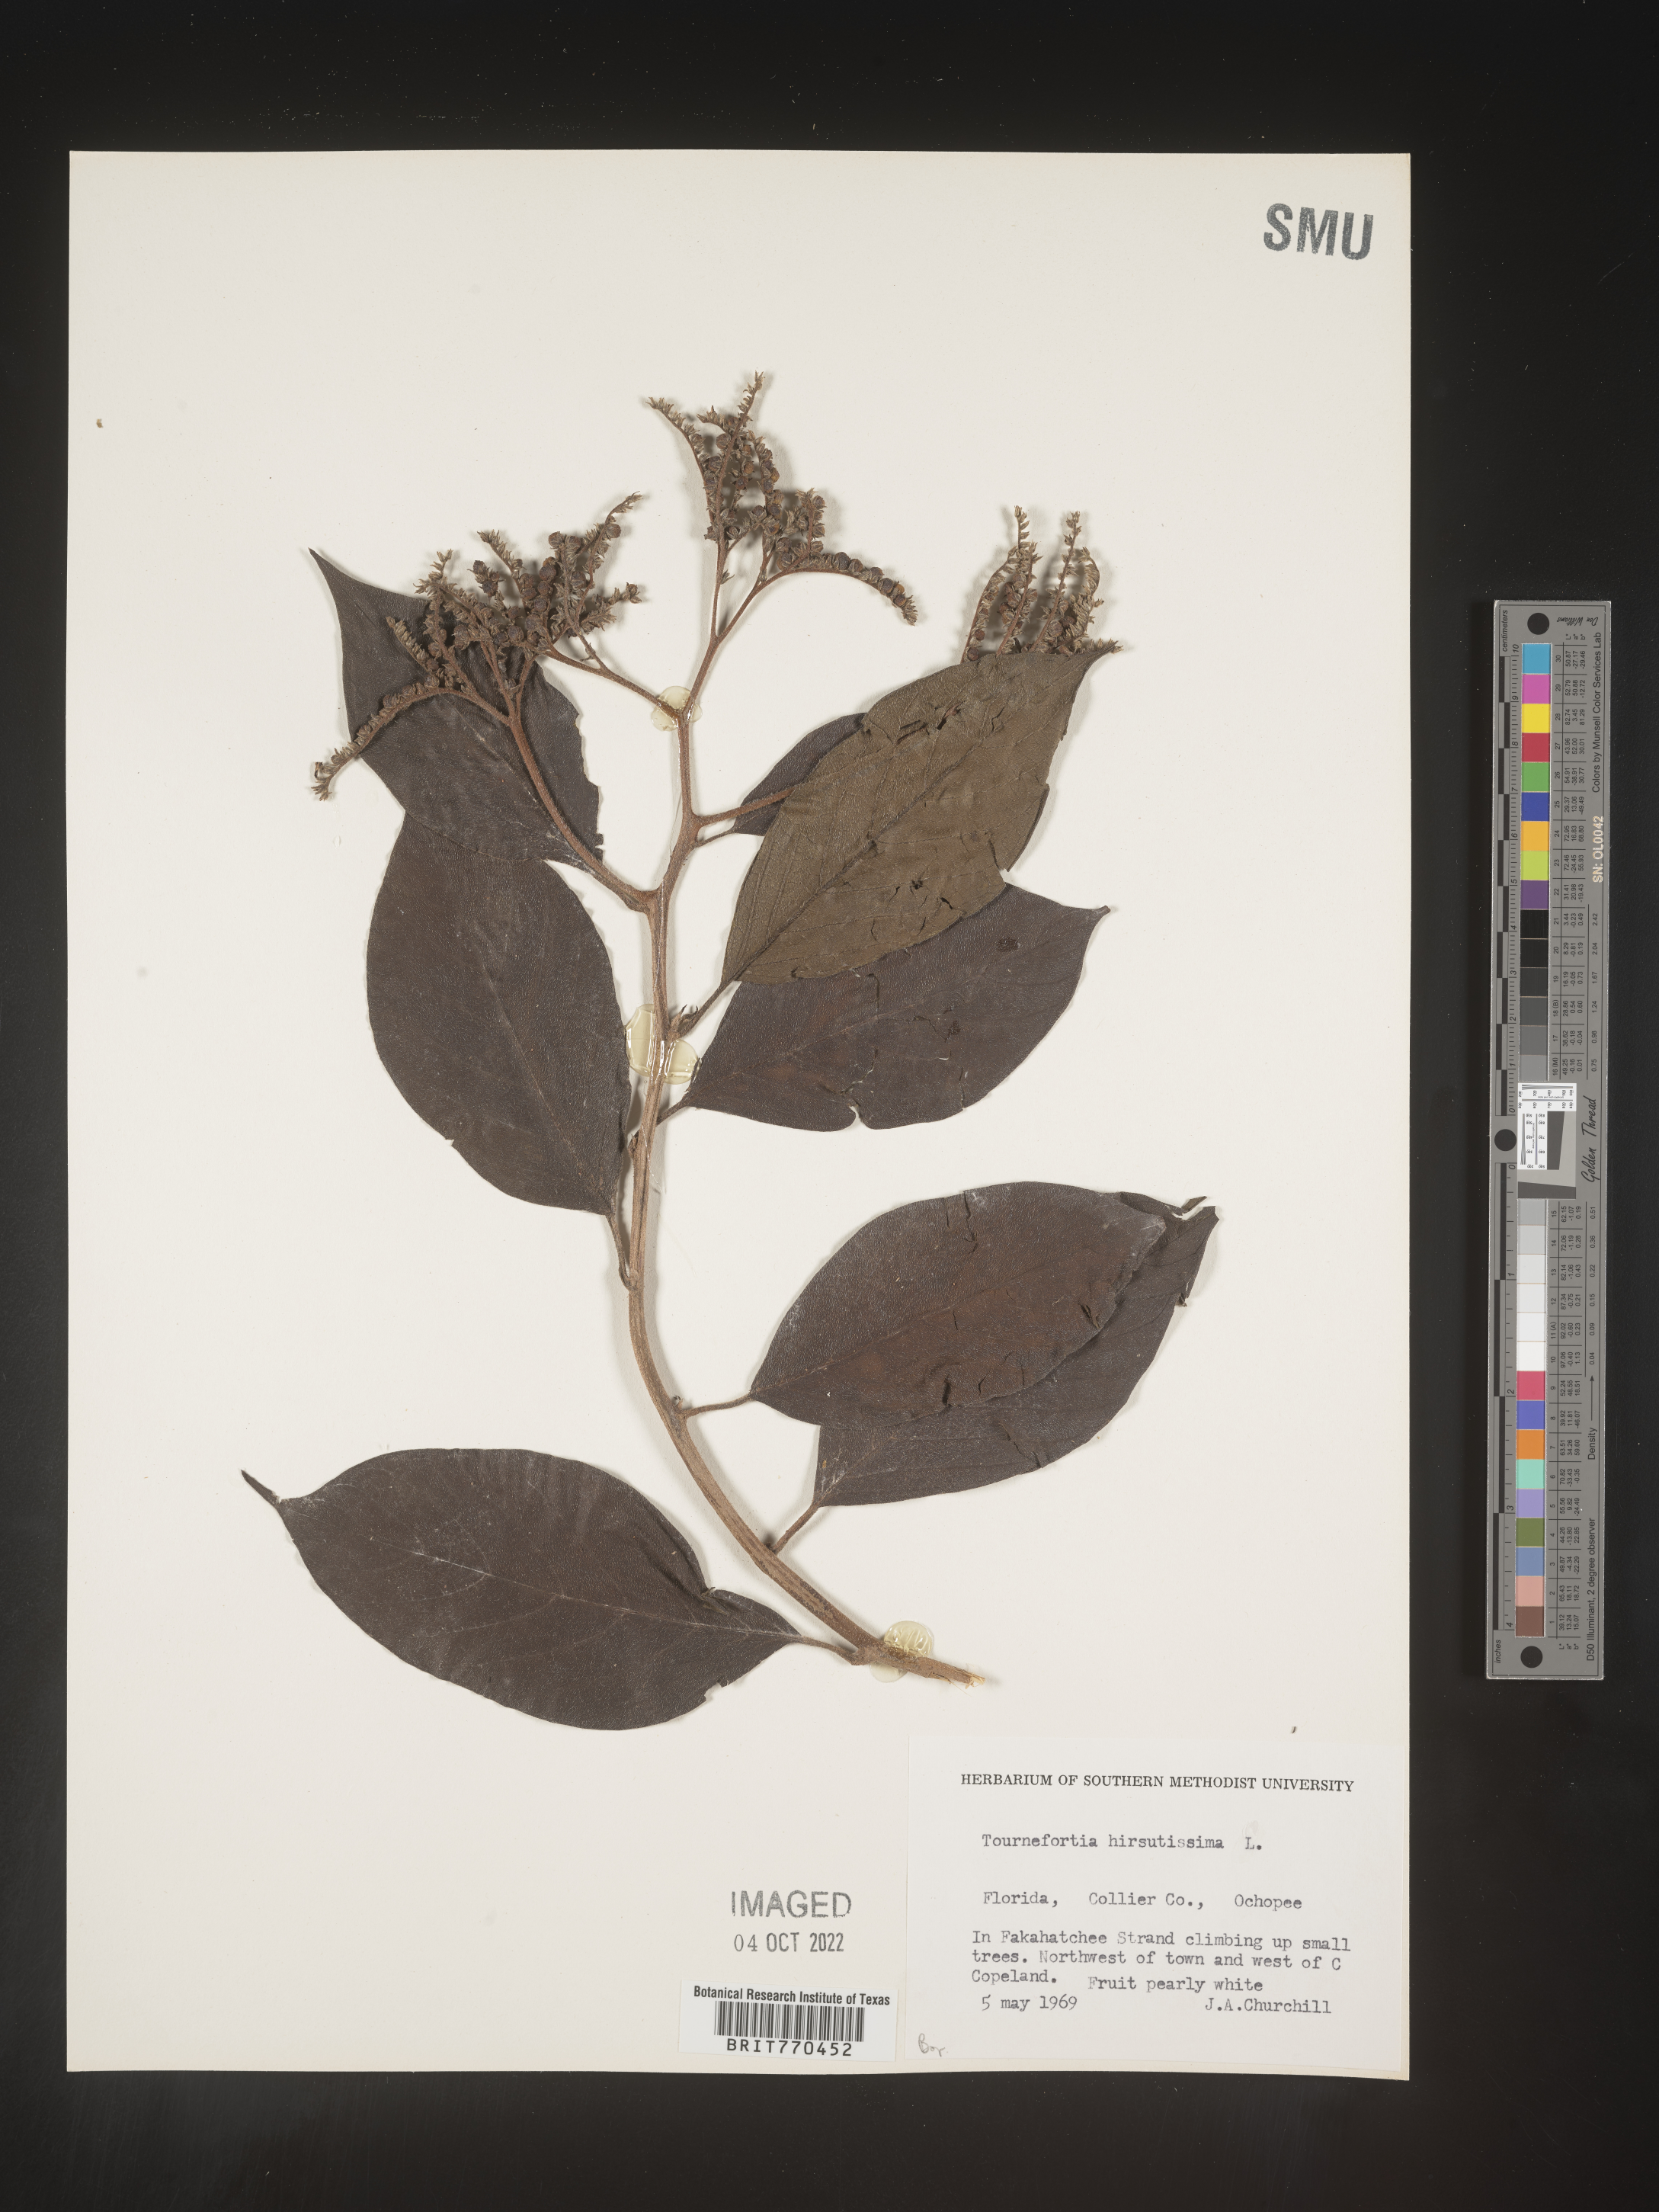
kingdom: Plantae
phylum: Tracheophyta
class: Magnoliopsida
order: Boraginales
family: Heliotropiaceae
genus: Tournefortia
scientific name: Tournefortia
